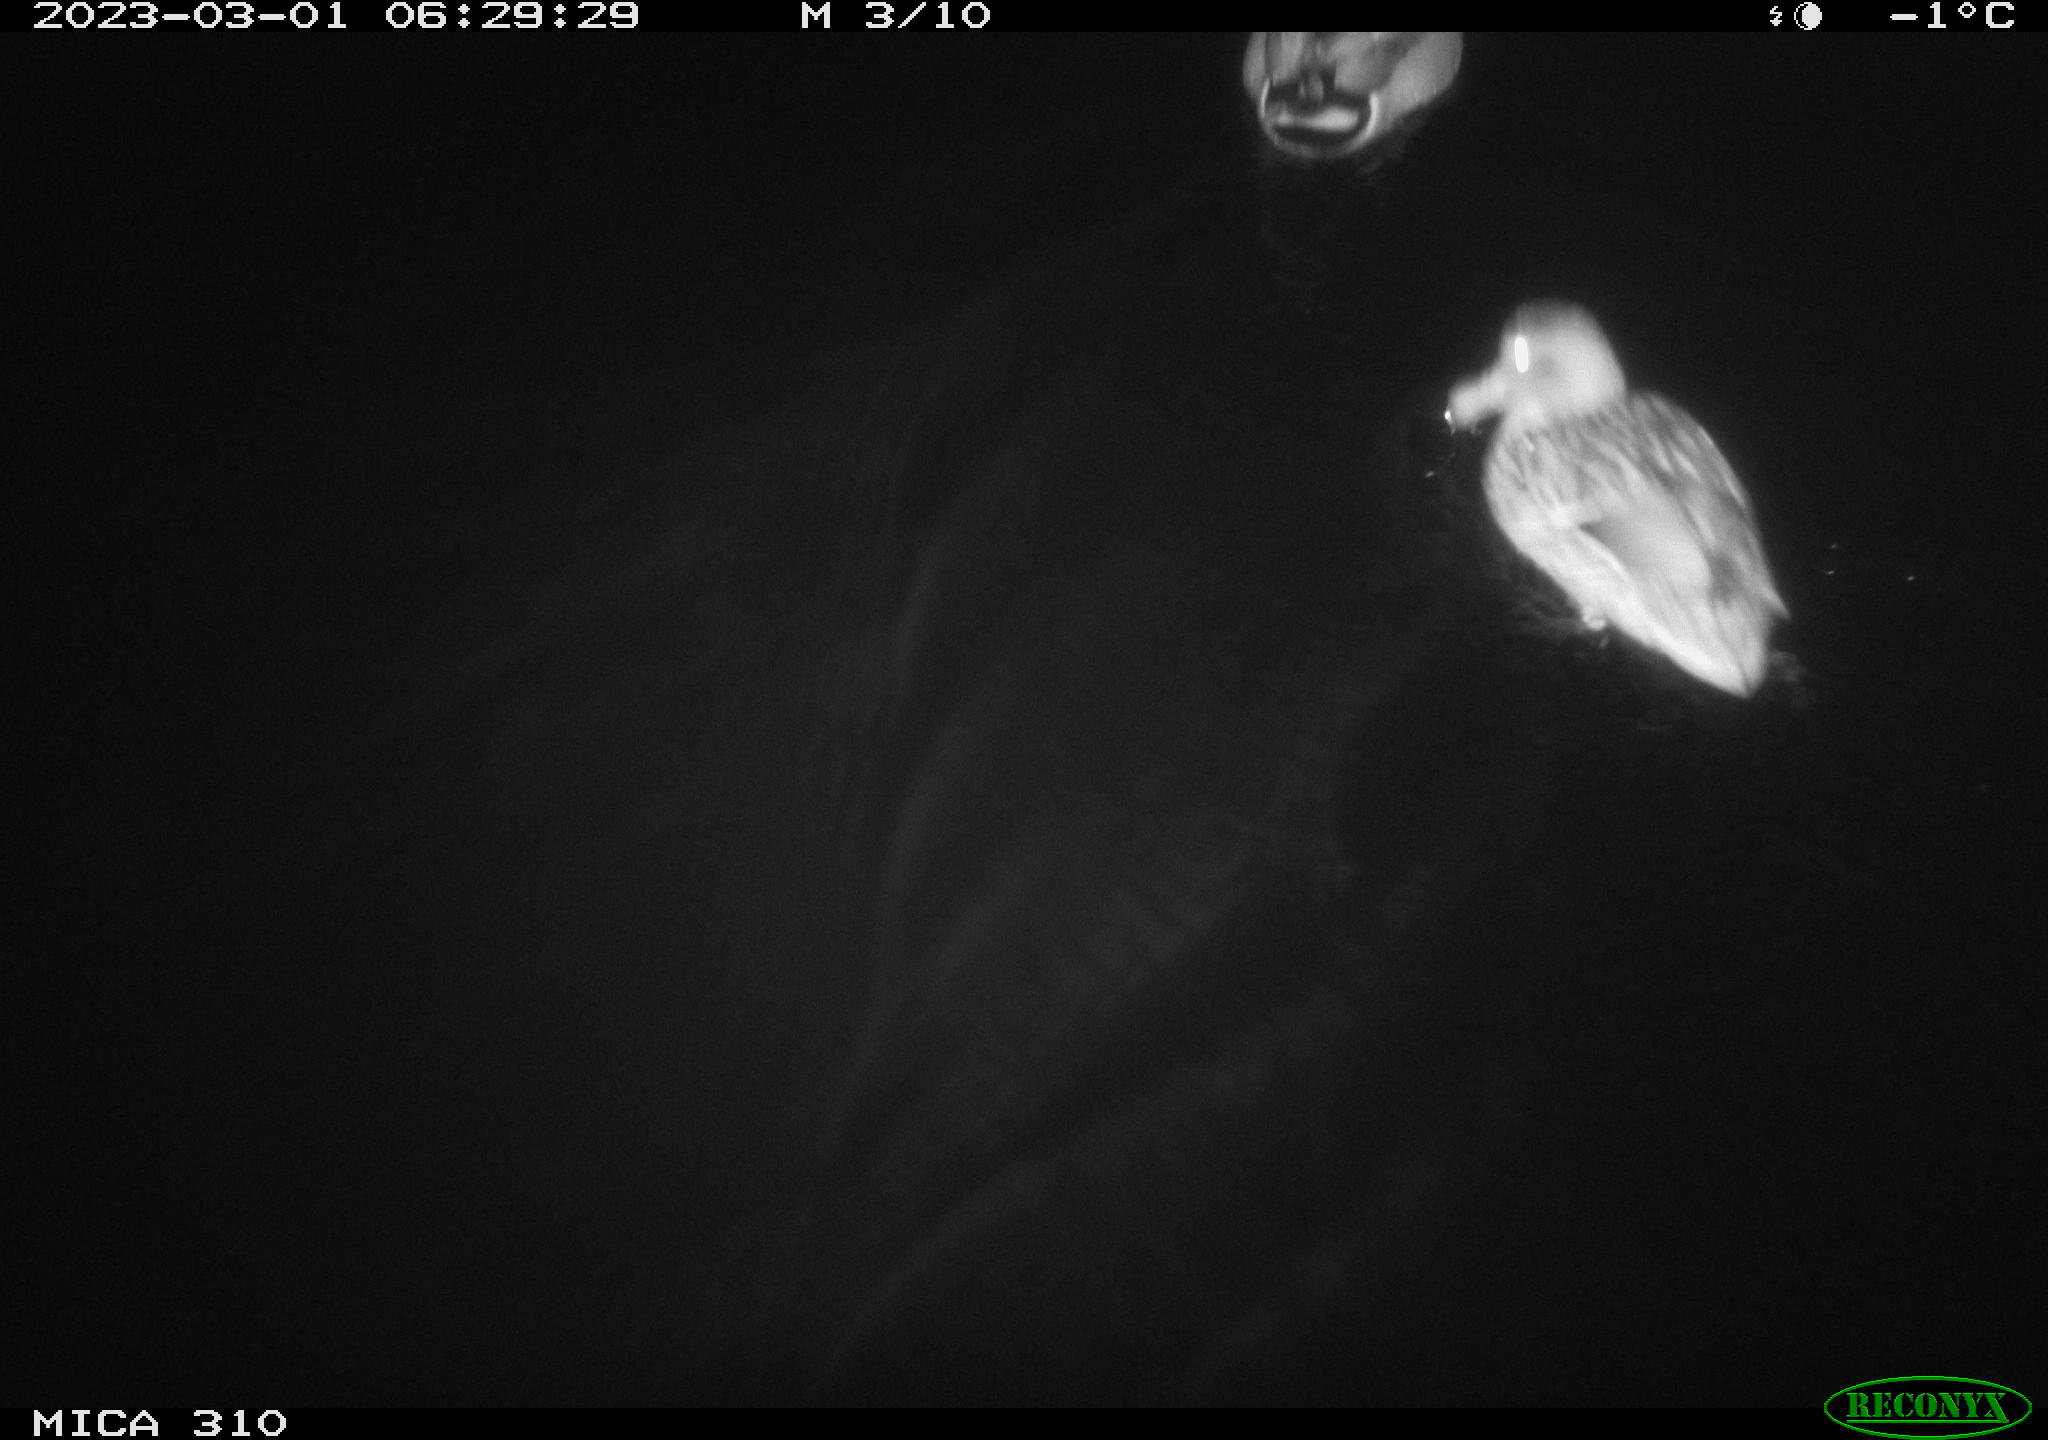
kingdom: Animalia
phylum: Chordata
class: Aves
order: Anseriformes
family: Anatidae
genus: Anas
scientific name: Anas
